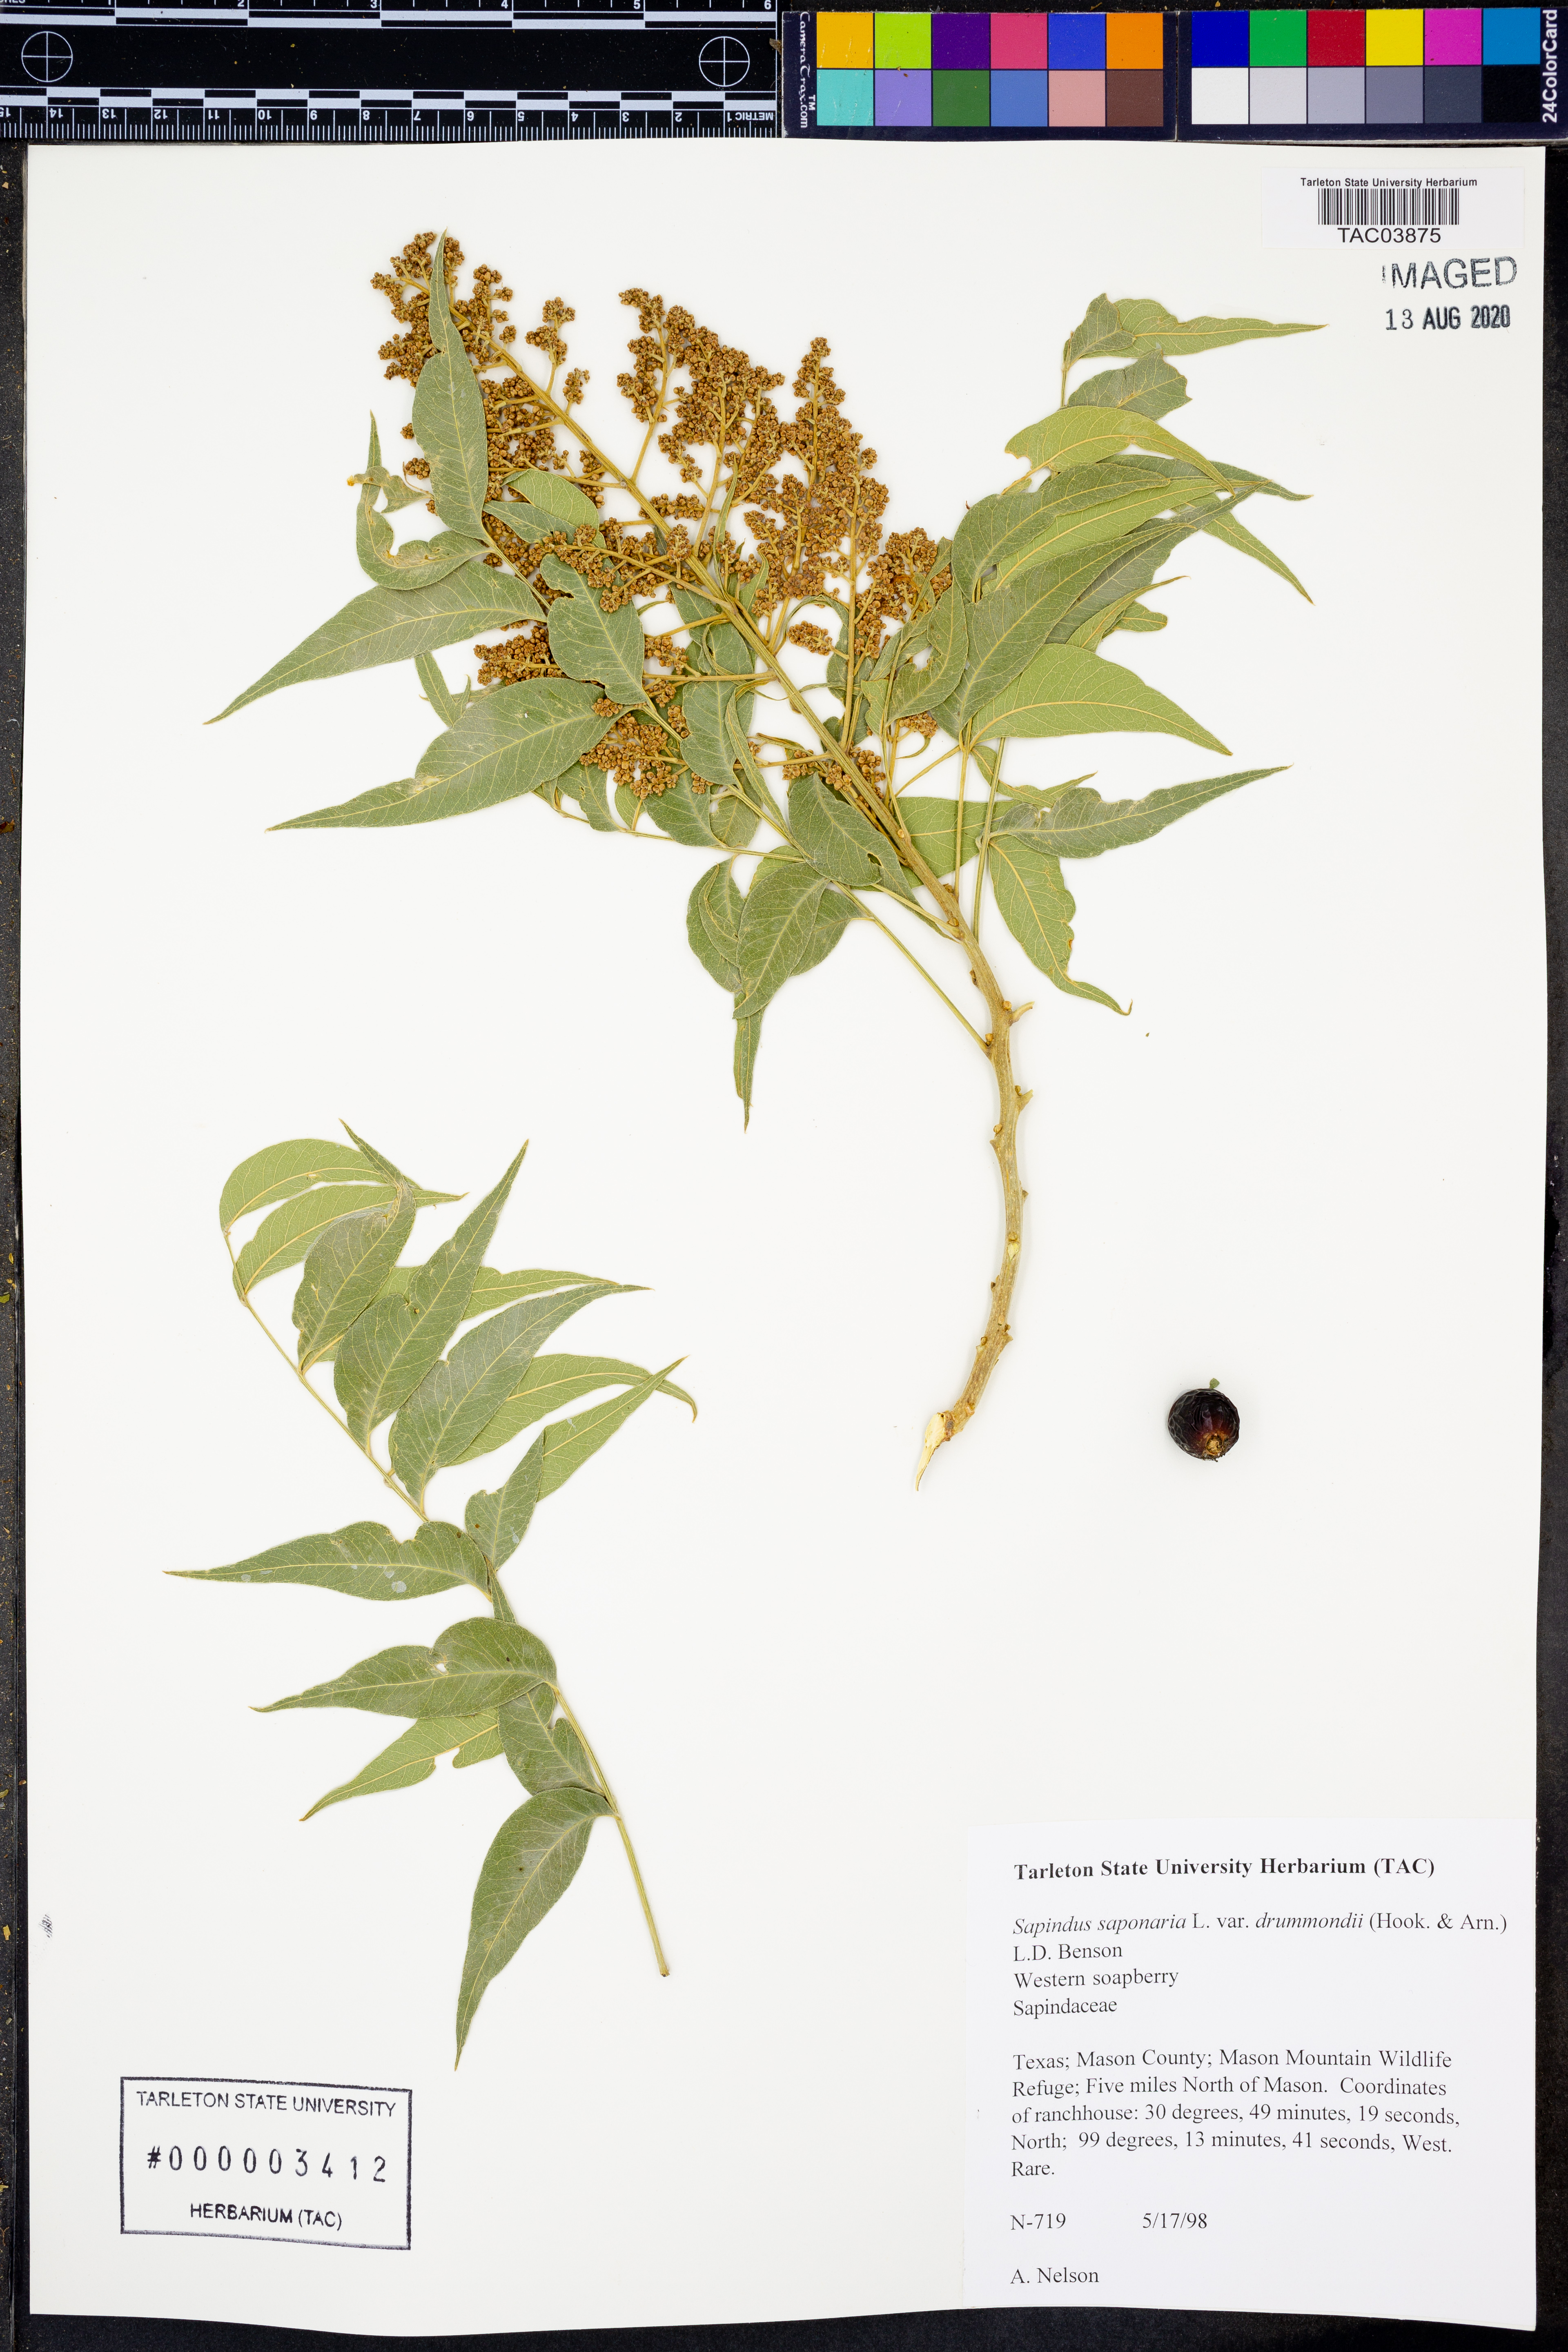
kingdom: Plantae
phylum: Tracheophyta
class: Magnoliopsida
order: Sapindales
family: Sapindaceae
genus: Sapindus
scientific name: Sapindus drummondii
